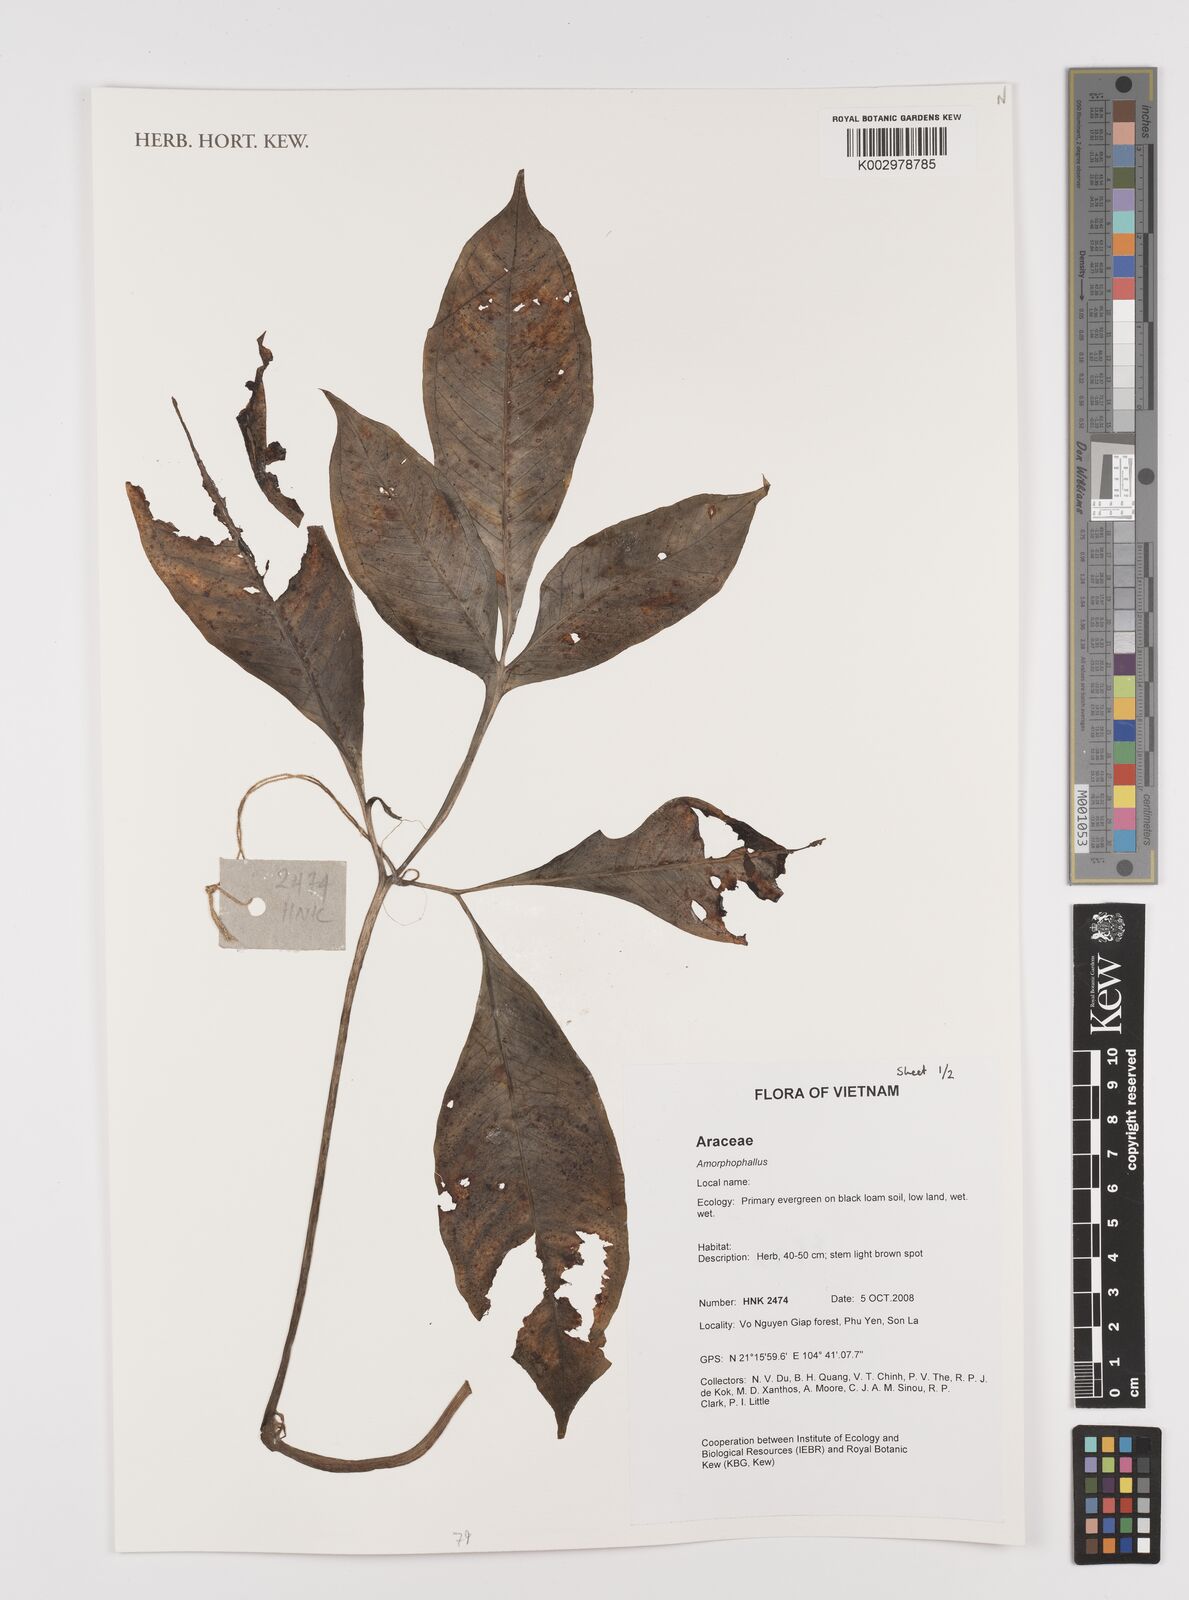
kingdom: Plantae
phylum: Tracheophyta
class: Liliopsida
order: Alismatales
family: Araceae
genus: Amorphophallus
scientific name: Amorphophallus
